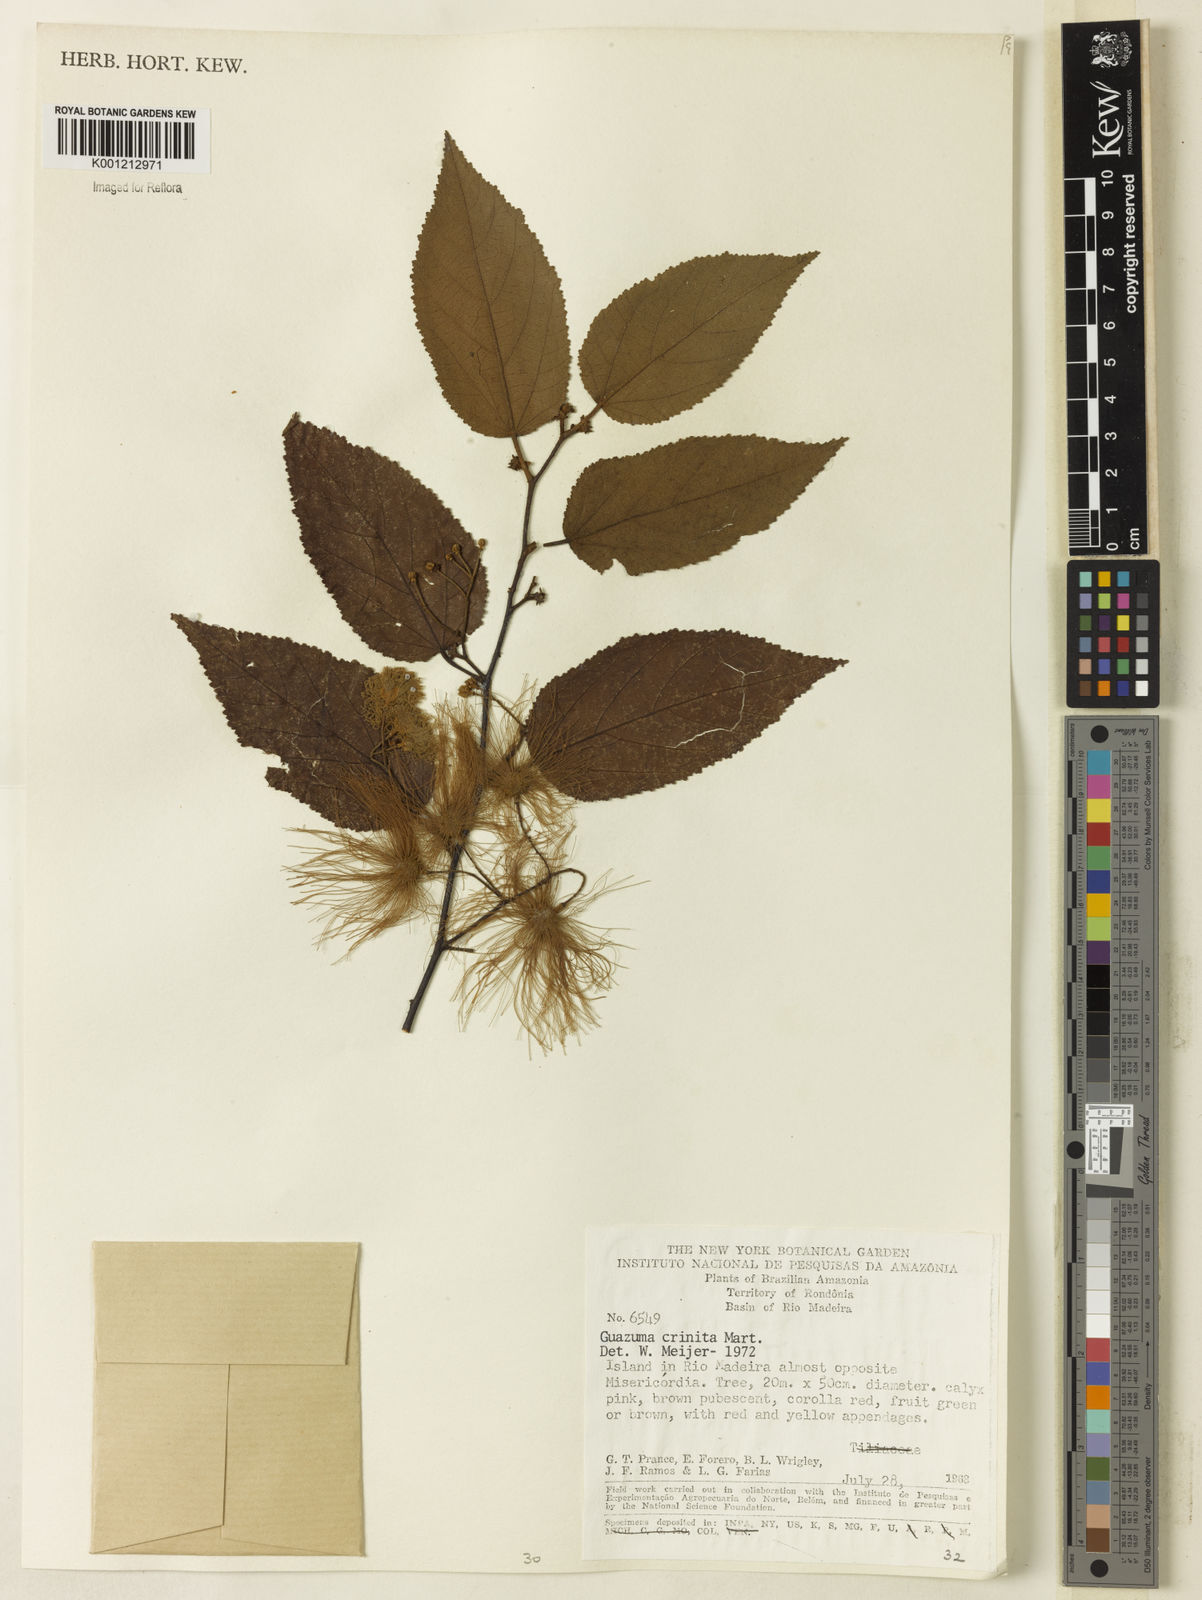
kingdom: Plantae
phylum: Tracheophyta
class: Magnoliopsida
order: Malvales
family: Malvaceae
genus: Guazuma
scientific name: Guazuma crinita
